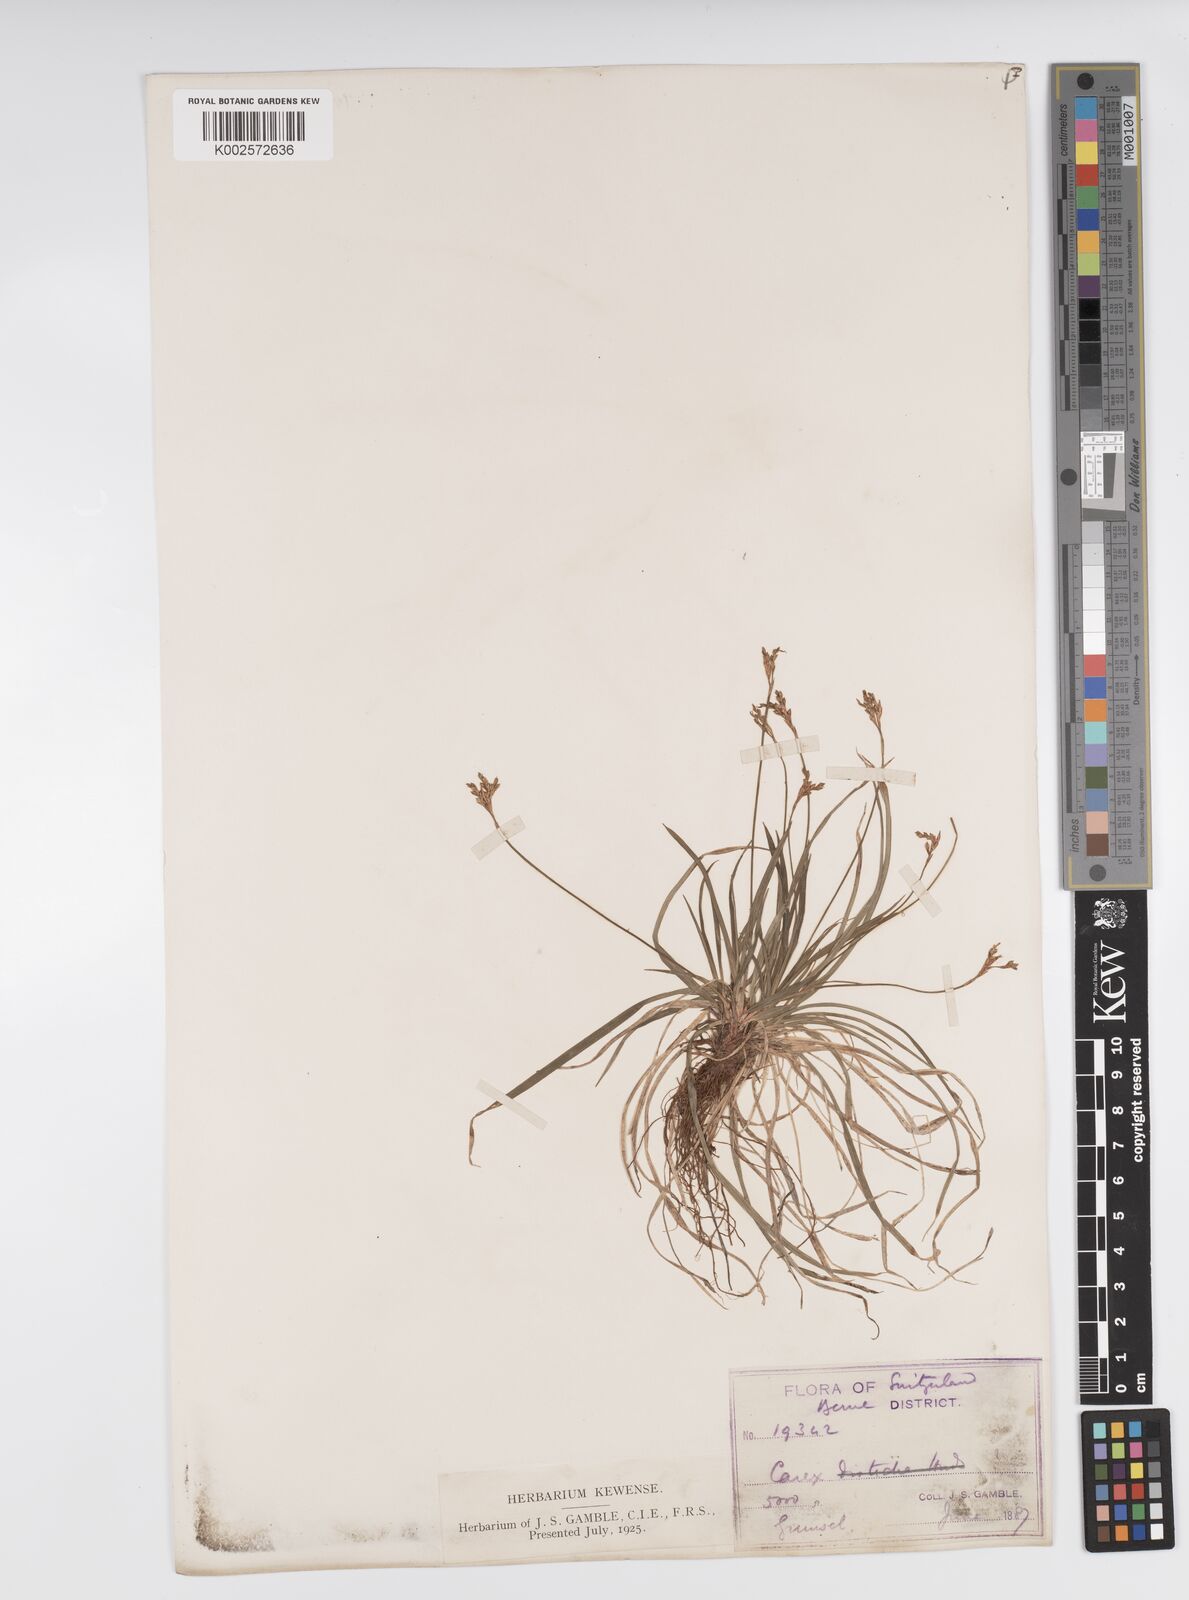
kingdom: Plantae
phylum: Tracheophyta
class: Liliopsida
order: Poales
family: Cyperaceae
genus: Carex
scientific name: Carex ornithopoda
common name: Bird's-foot sedge
